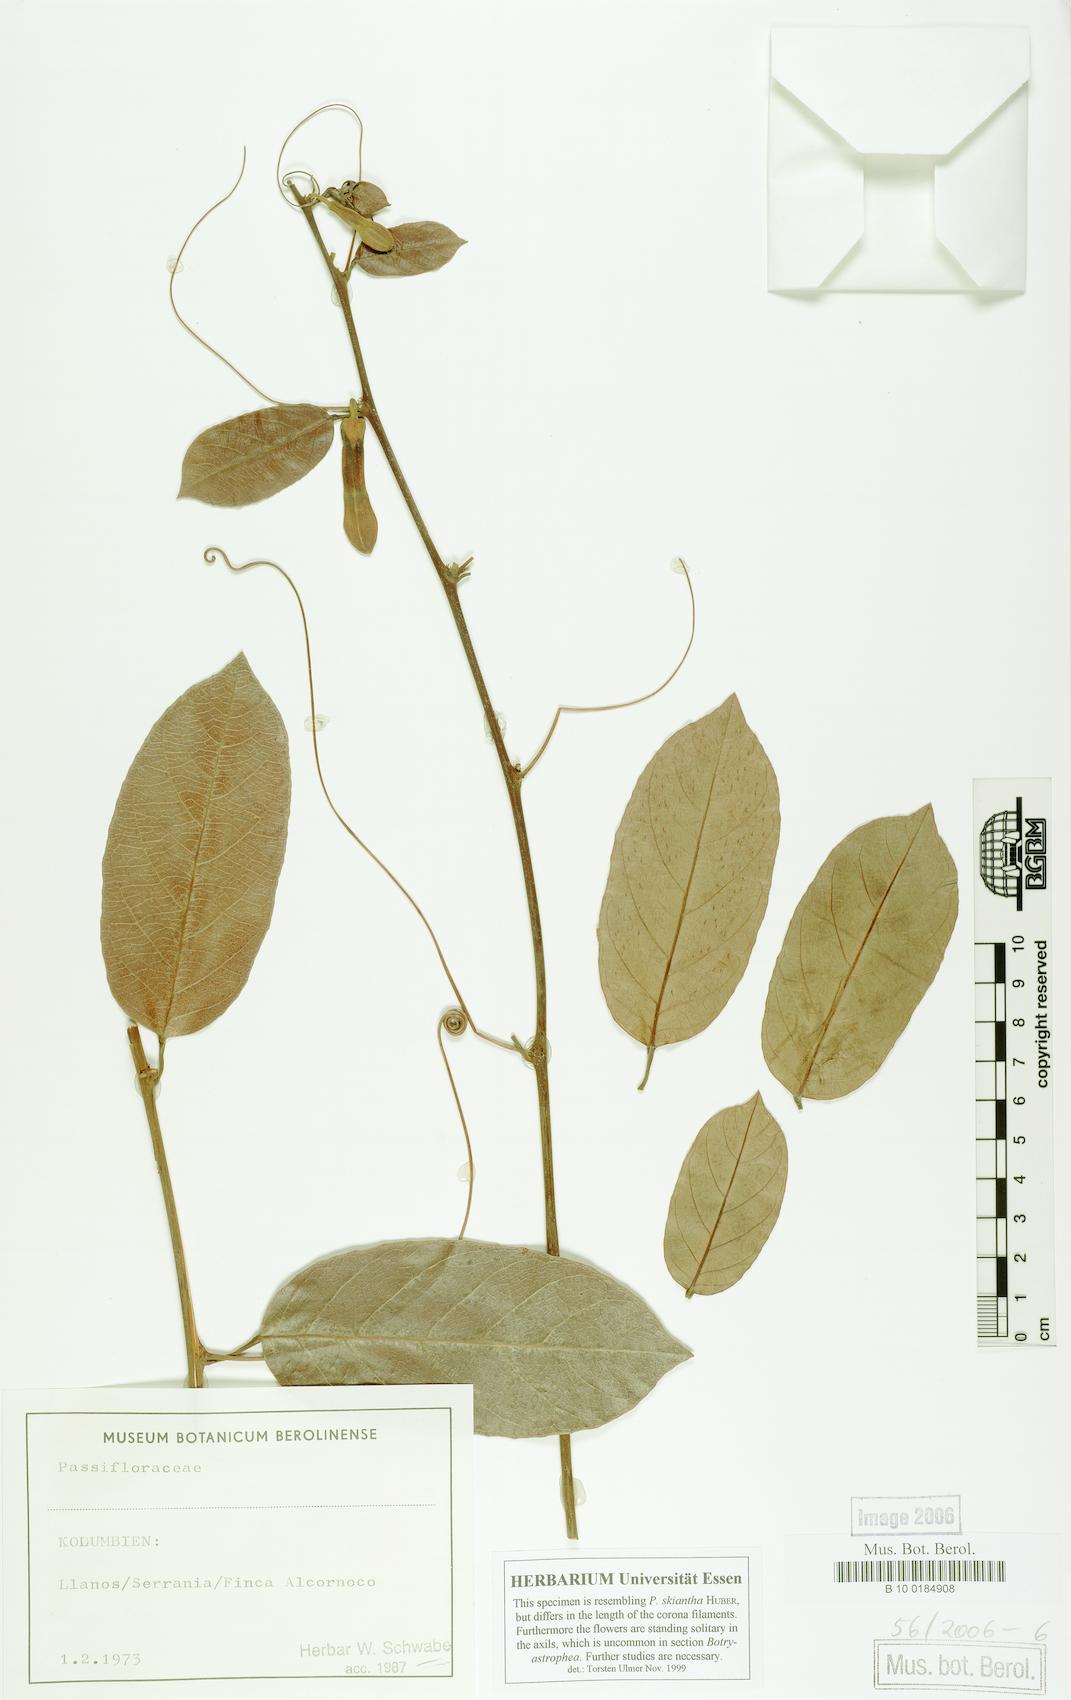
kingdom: Plantae
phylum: Tracheophyta
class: Magnoliopsida
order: Malpighiales
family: Passifloraceae
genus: Passiflora
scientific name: Passiflora skiantha
